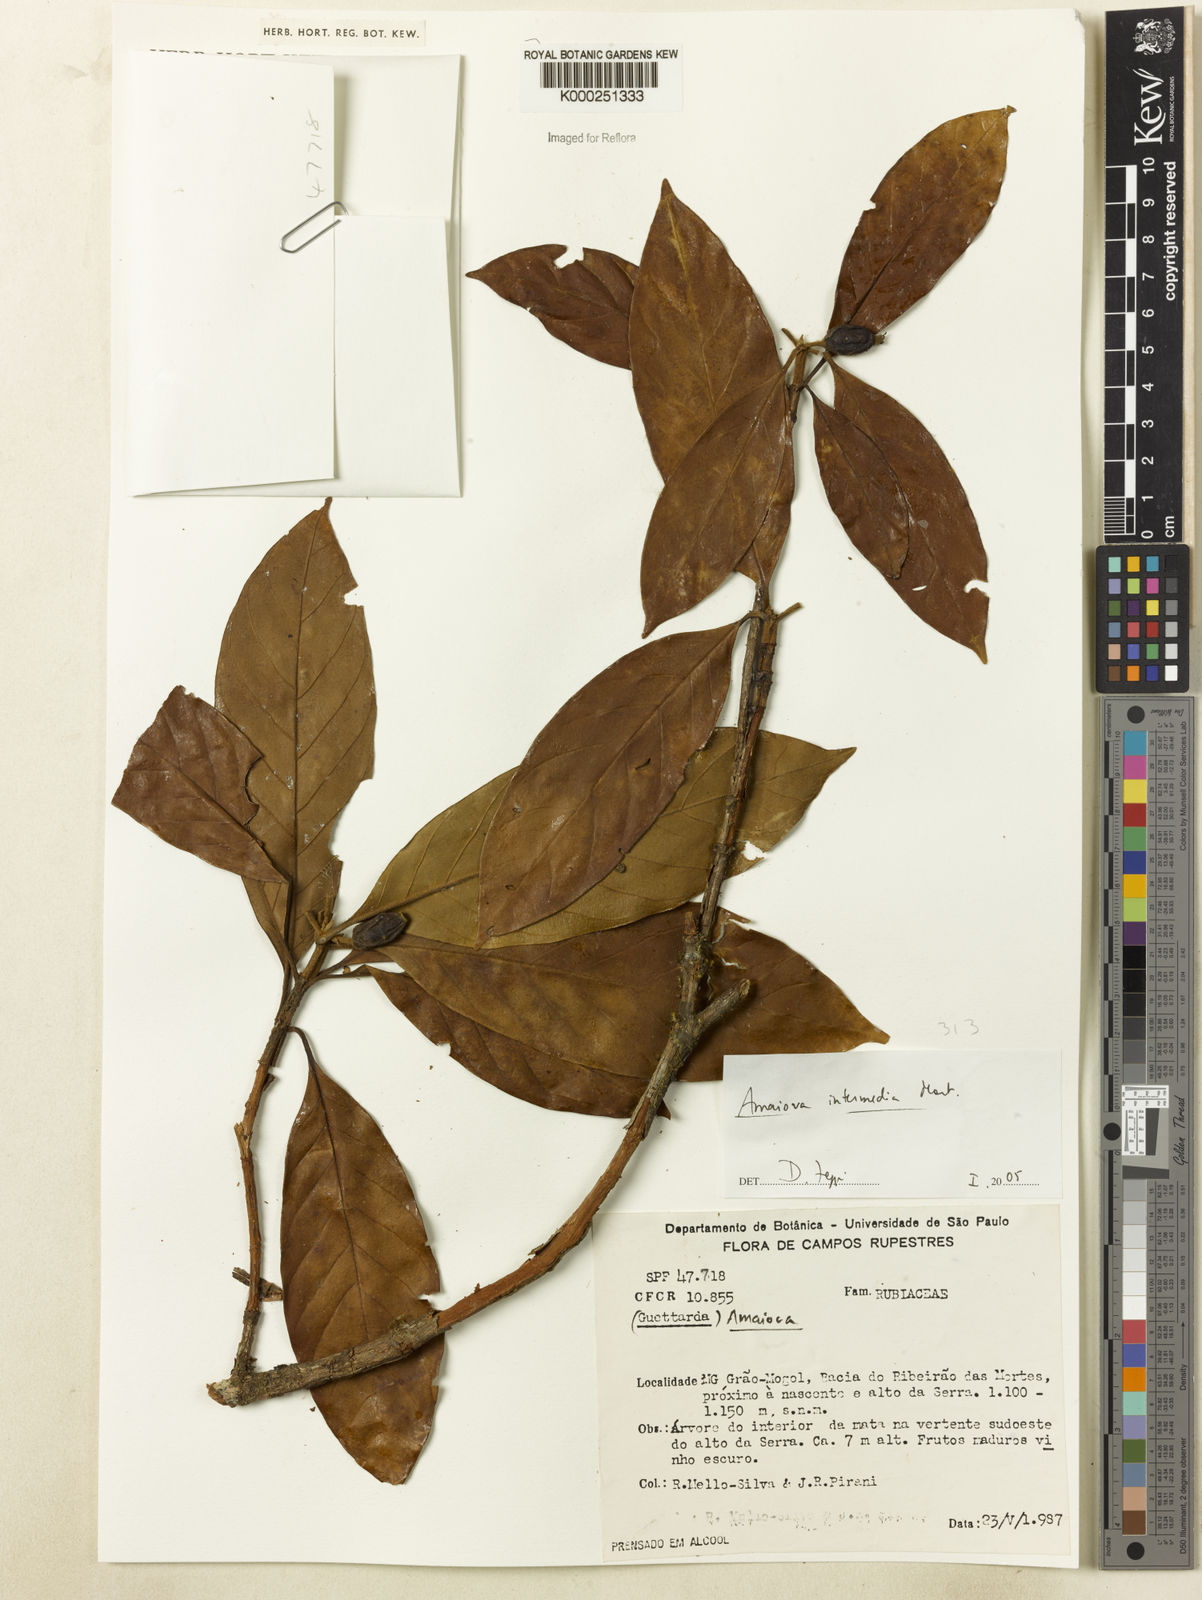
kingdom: Plantae
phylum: Tracheophyta
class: Magnoliopsida
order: Gentianales
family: Rubiaceae
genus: Amaioua
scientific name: Amaioua
